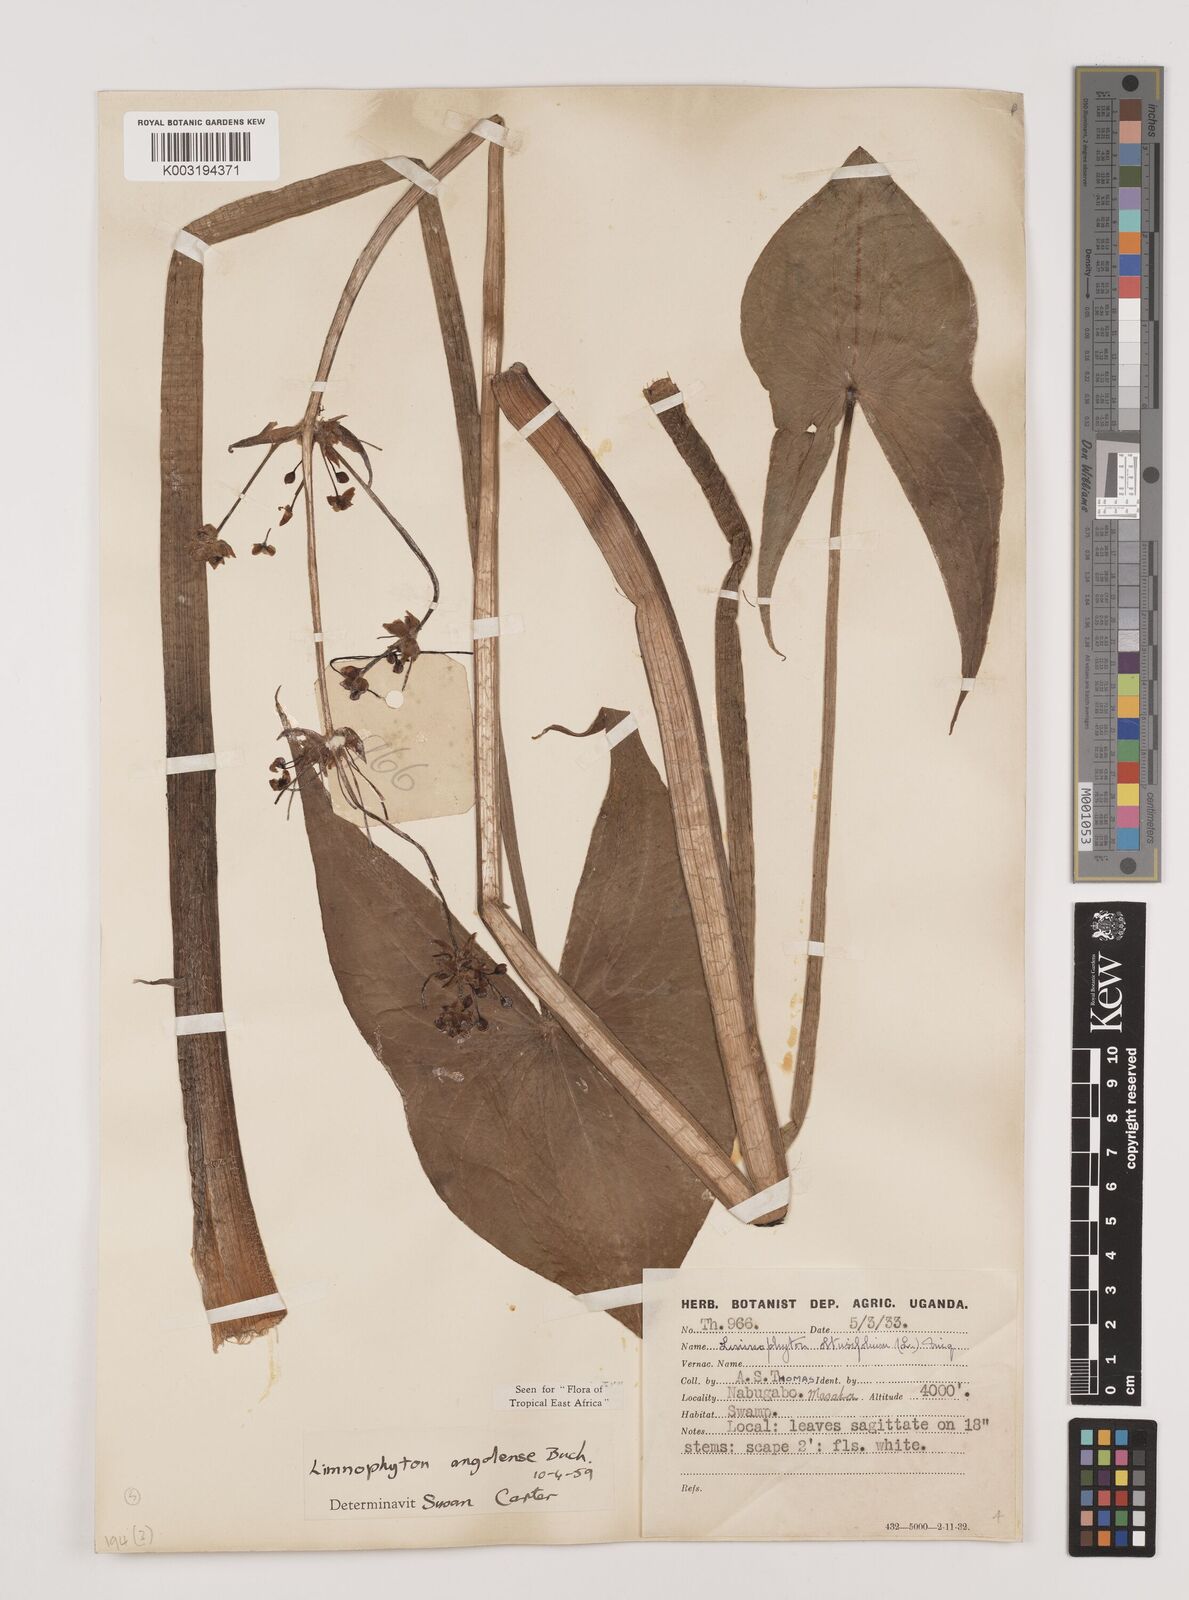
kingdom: Plantae
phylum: Tracheophyta
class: Liliopsida
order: Alismatales
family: Alismataceae
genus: Limnophyton
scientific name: Limnophyton angolense
